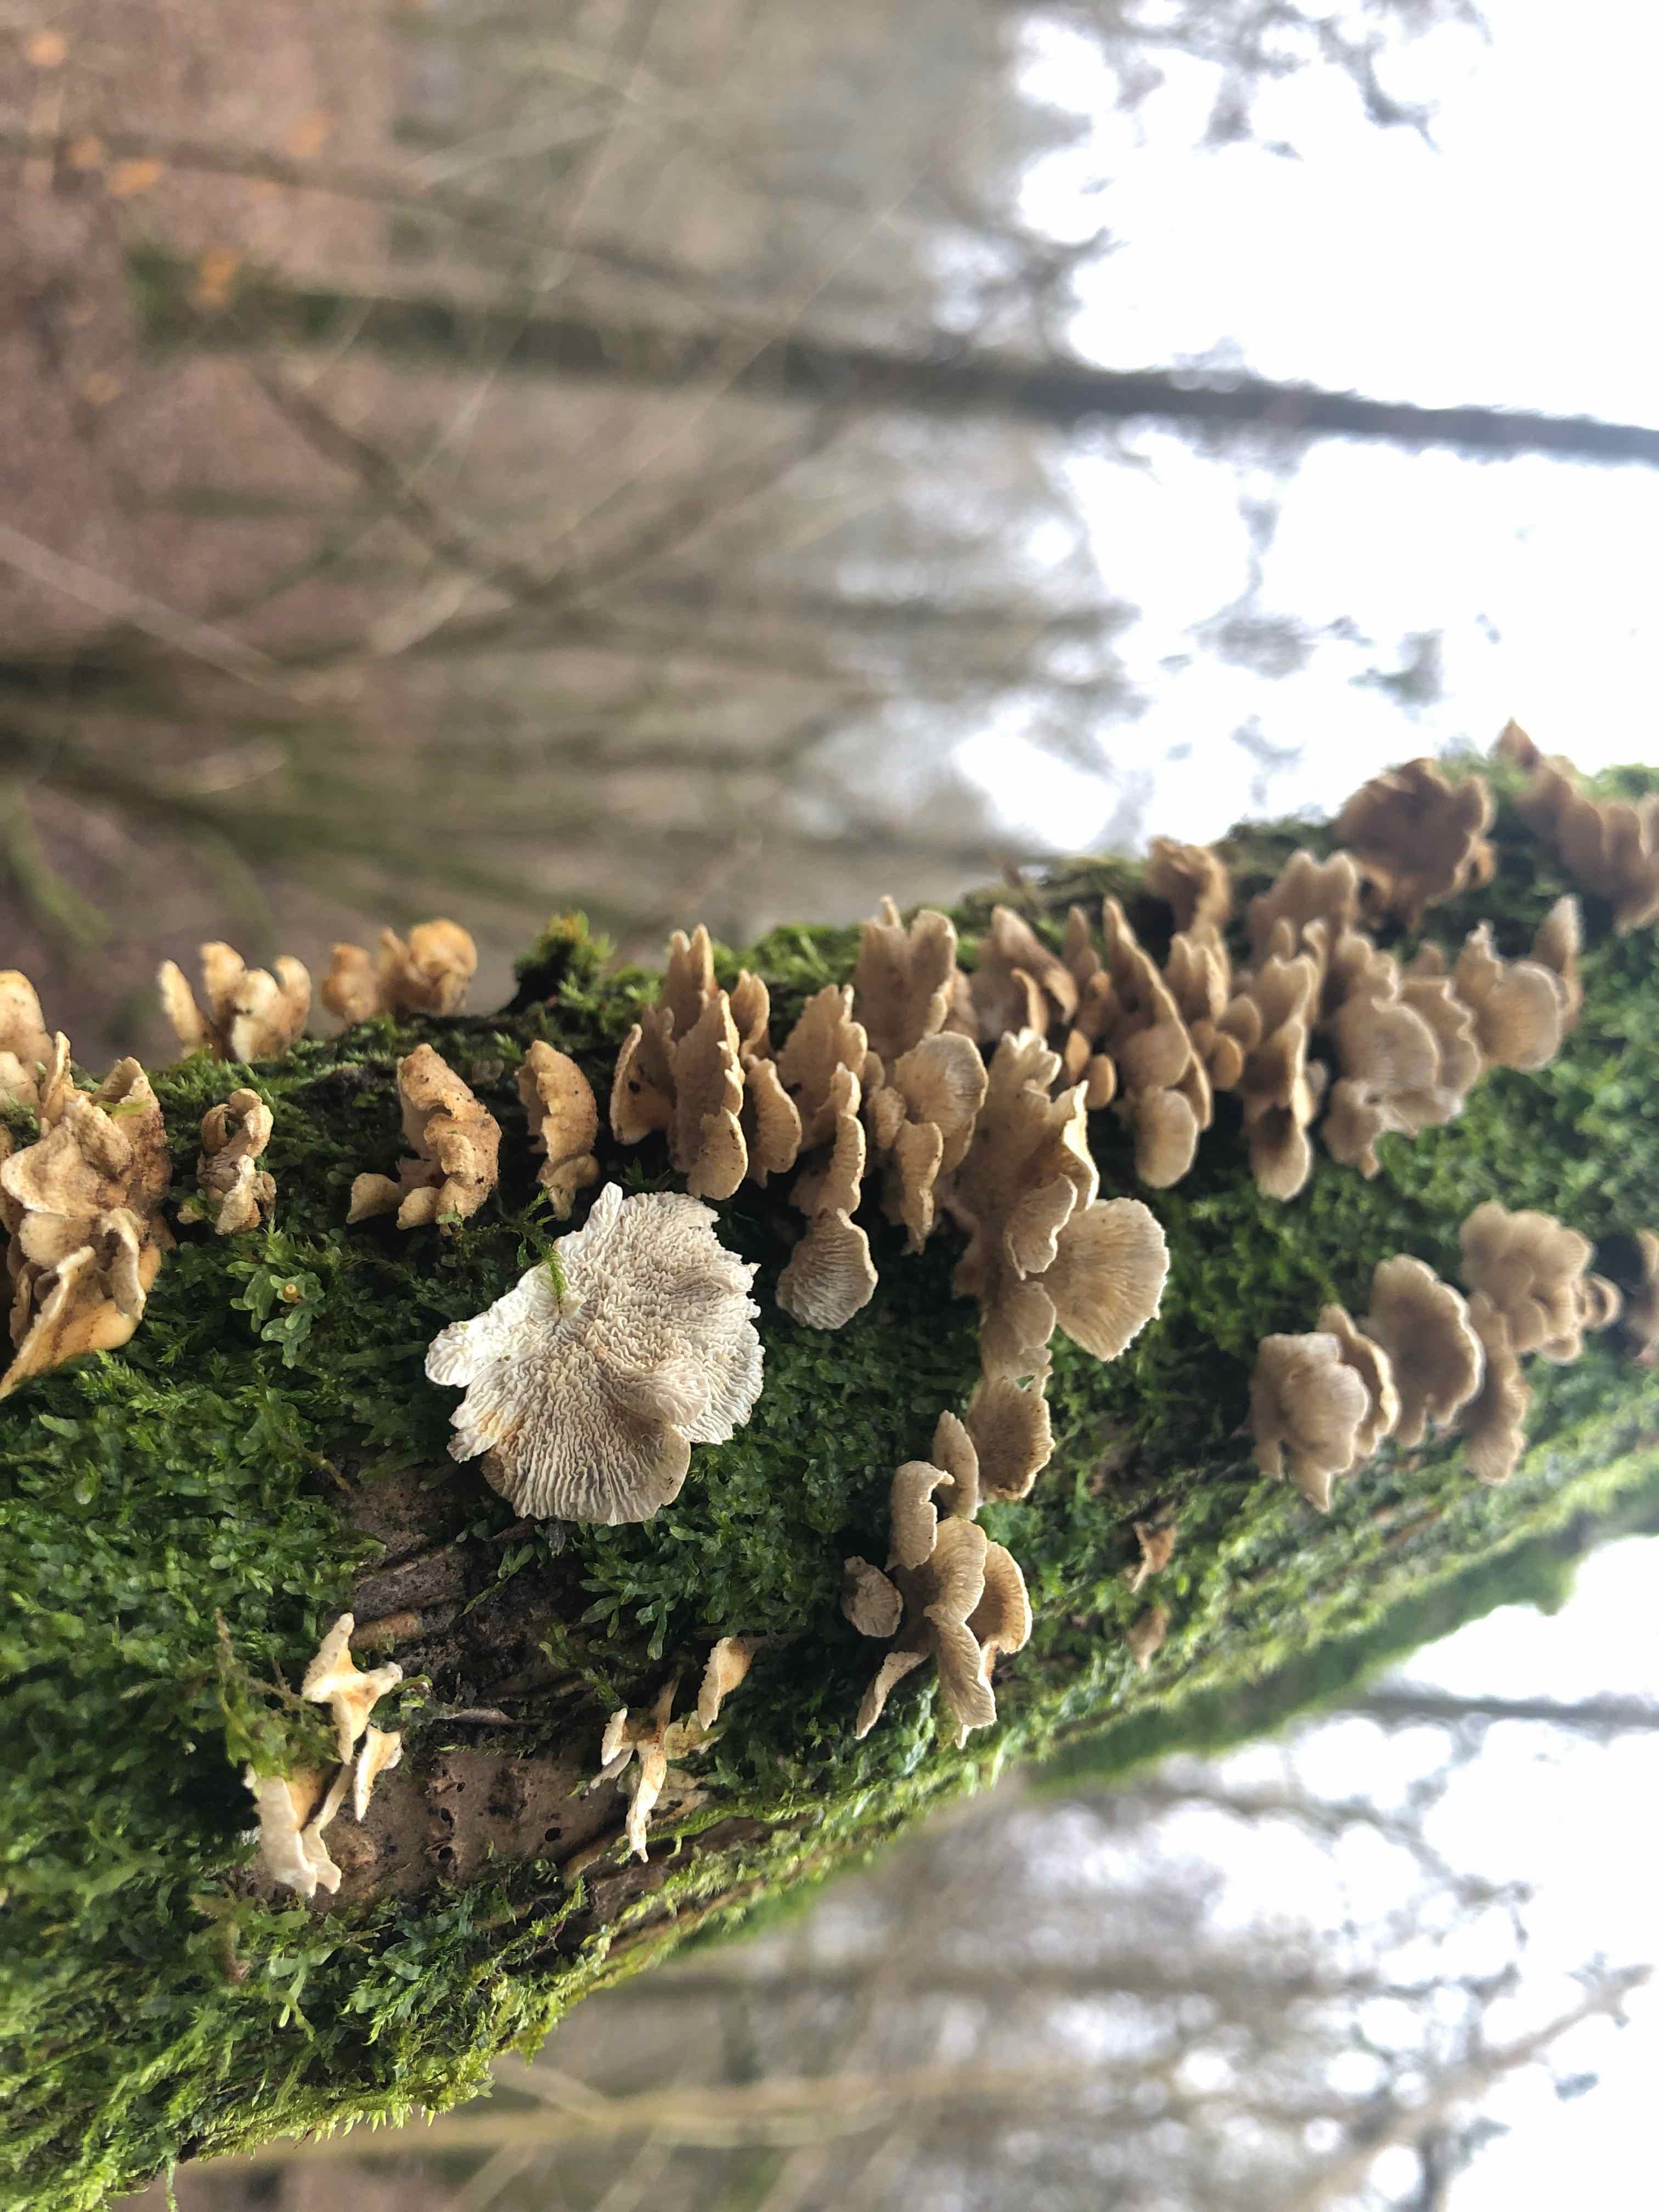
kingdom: Fungi
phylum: Basidiomycota
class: Agaricomycetes
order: Amylocorticiales
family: Amylocorticiaceae
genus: Plicaturopsis
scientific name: Plicaturopsis crispa
